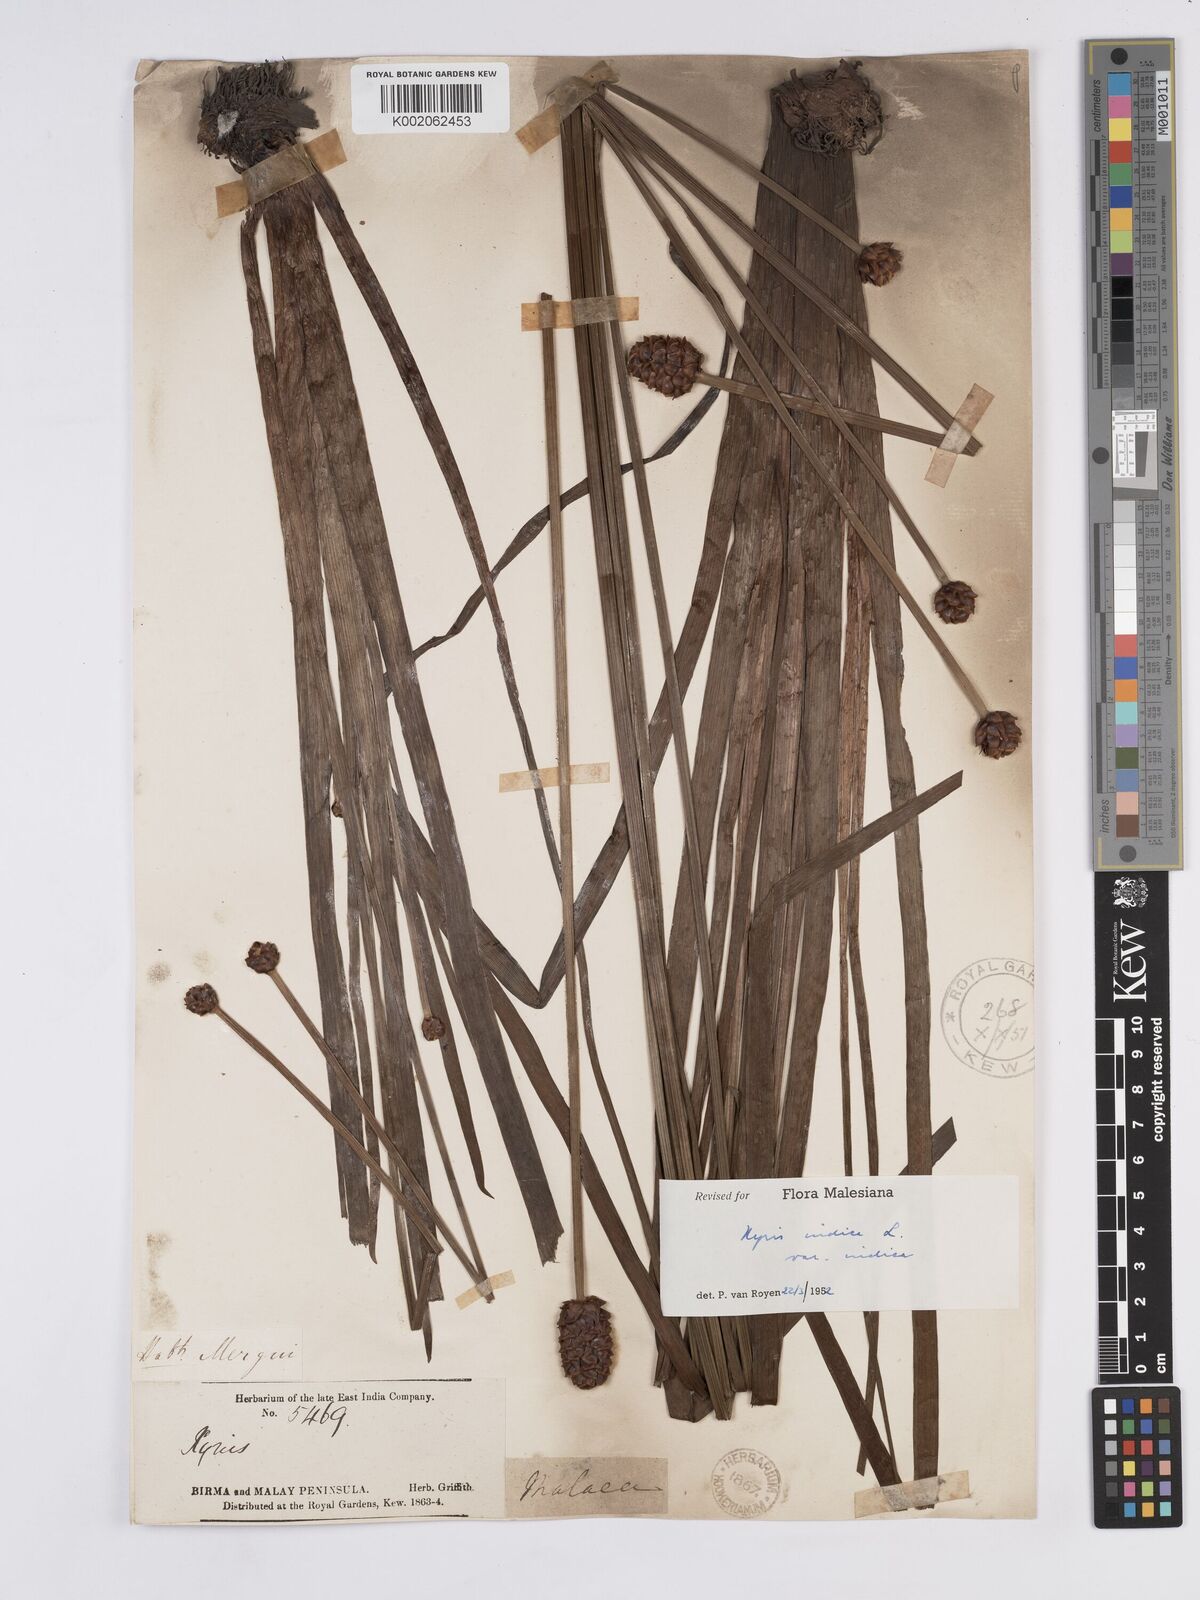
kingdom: Plantae
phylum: Tracheophyta
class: Liliopsida
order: Poales
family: Xyridaceae
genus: Xyris
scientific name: Xyris indica
